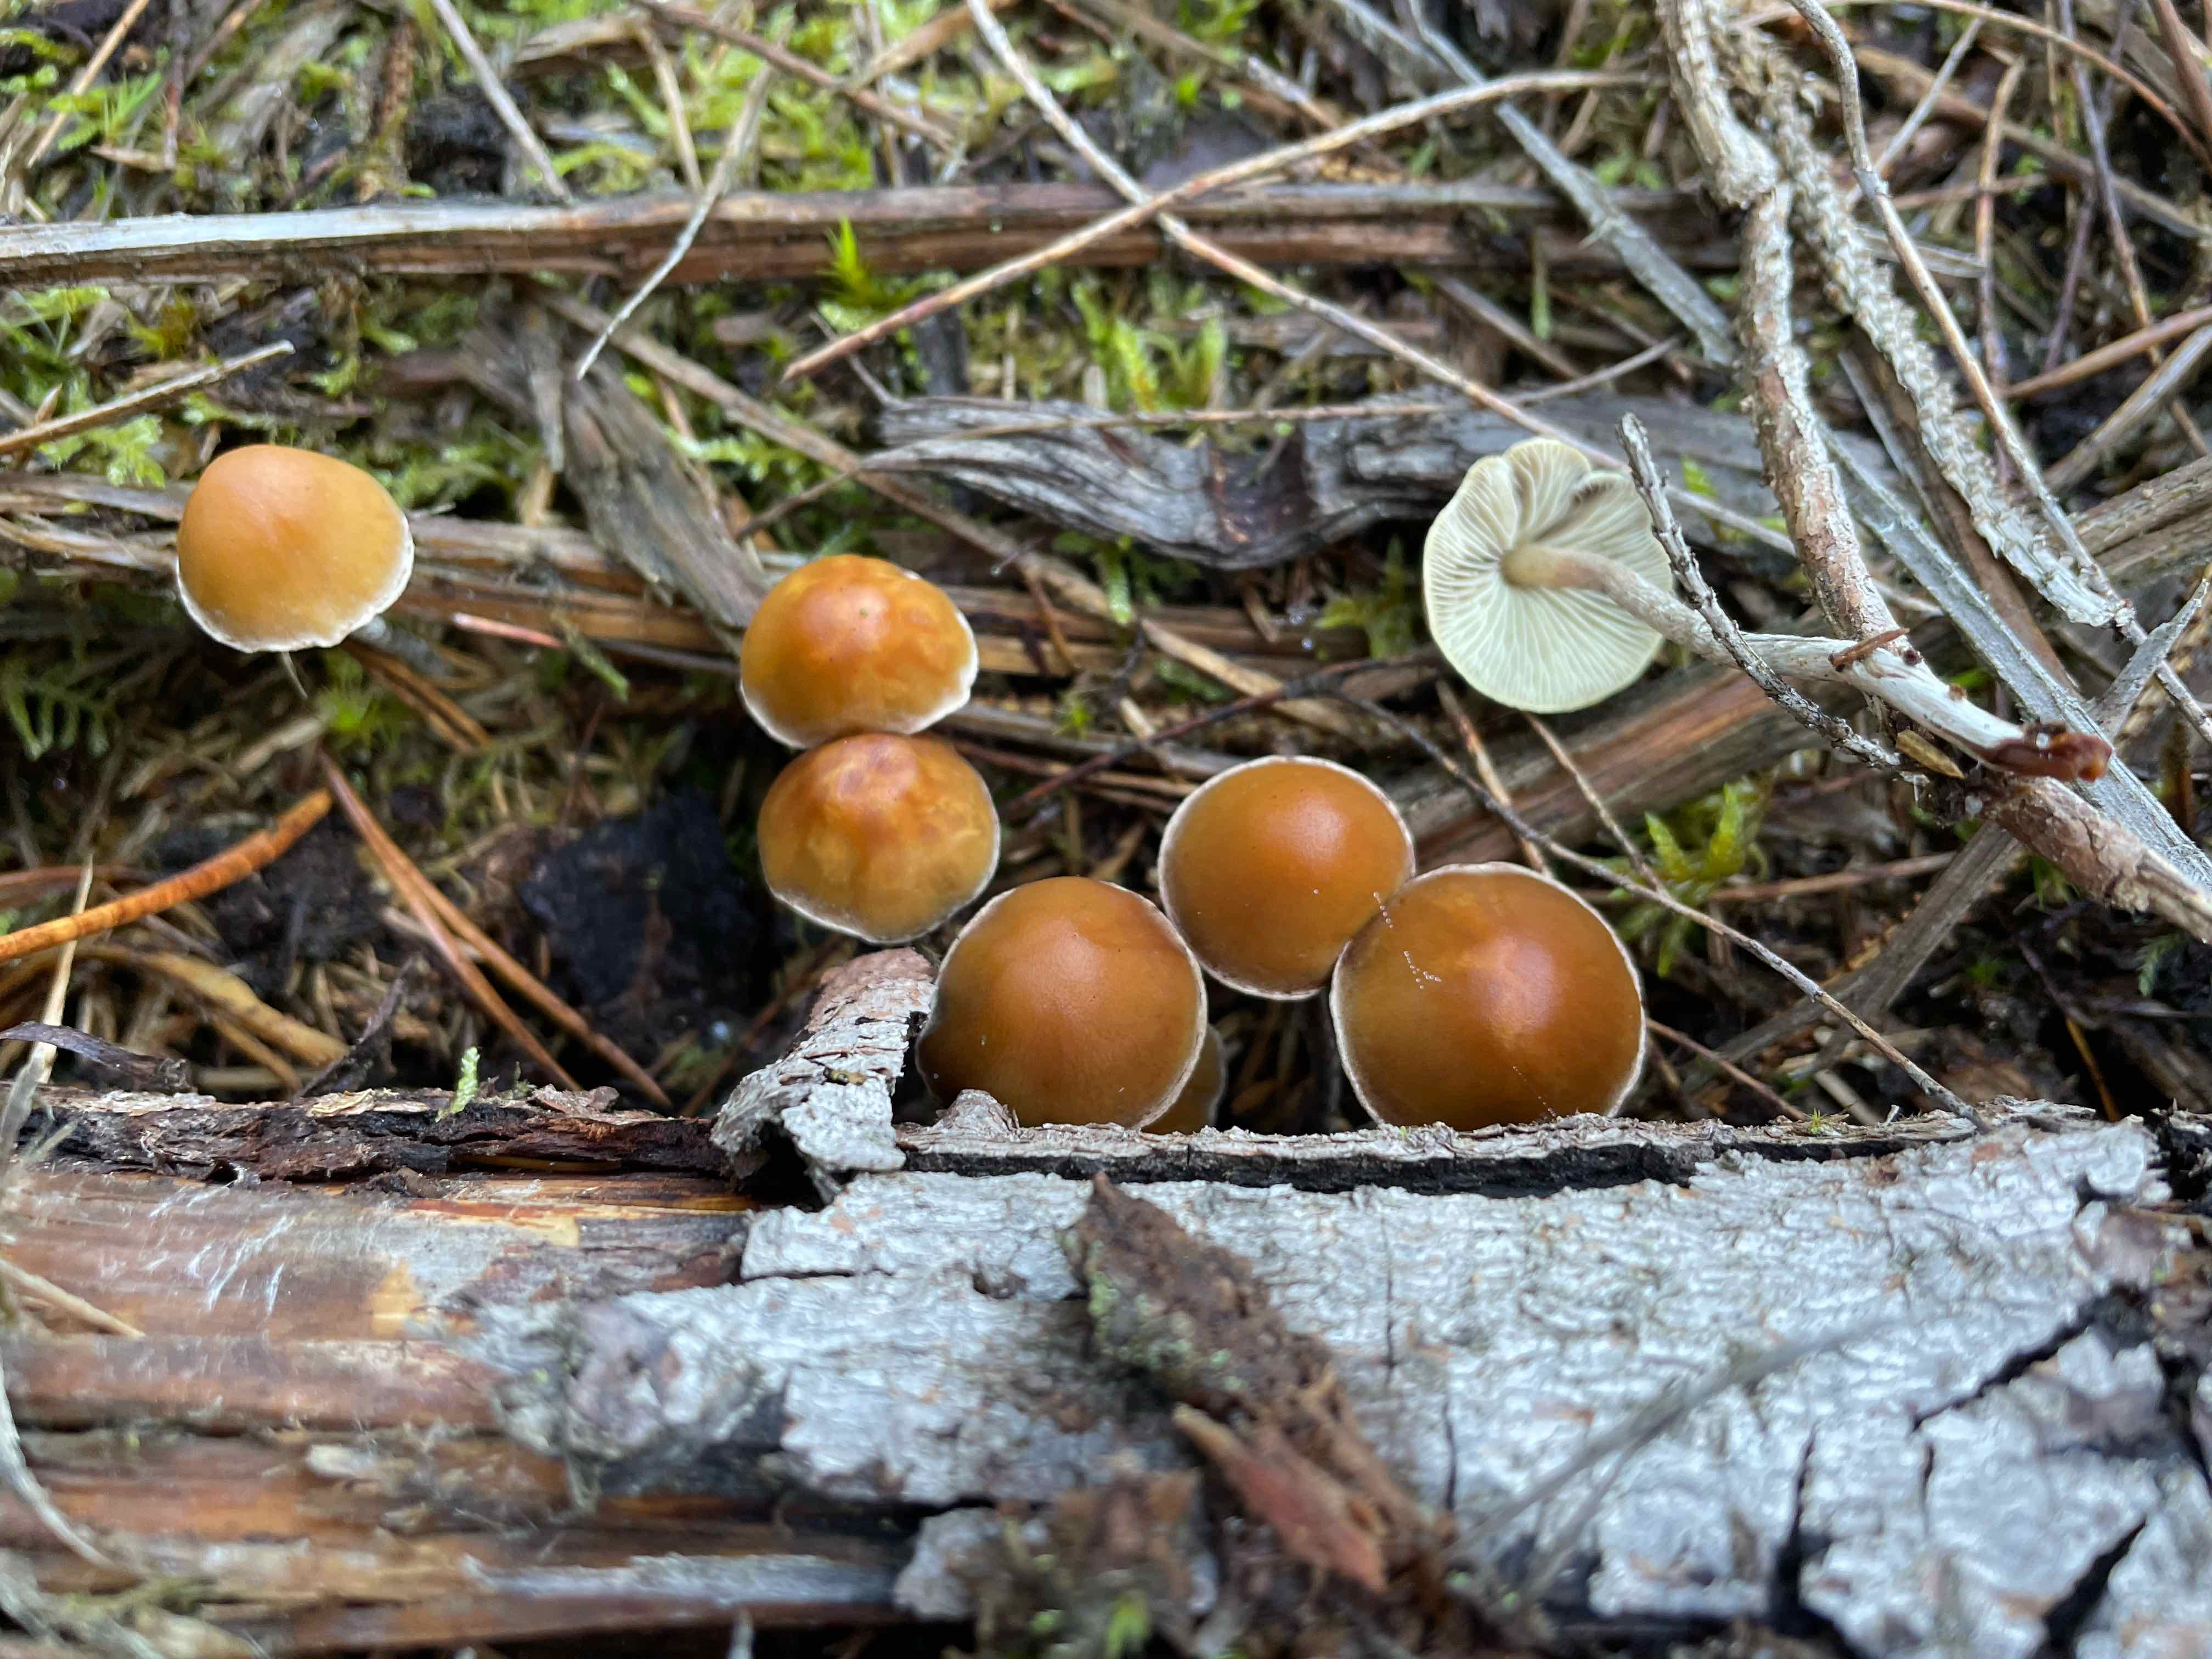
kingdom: Fungi
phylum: Basidiomycota
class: Agaricomycetes
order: Agaricales
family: Strophariaceae
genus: Hypholoma
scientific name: Hypholoma marginatum
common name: enlig svovlhat
